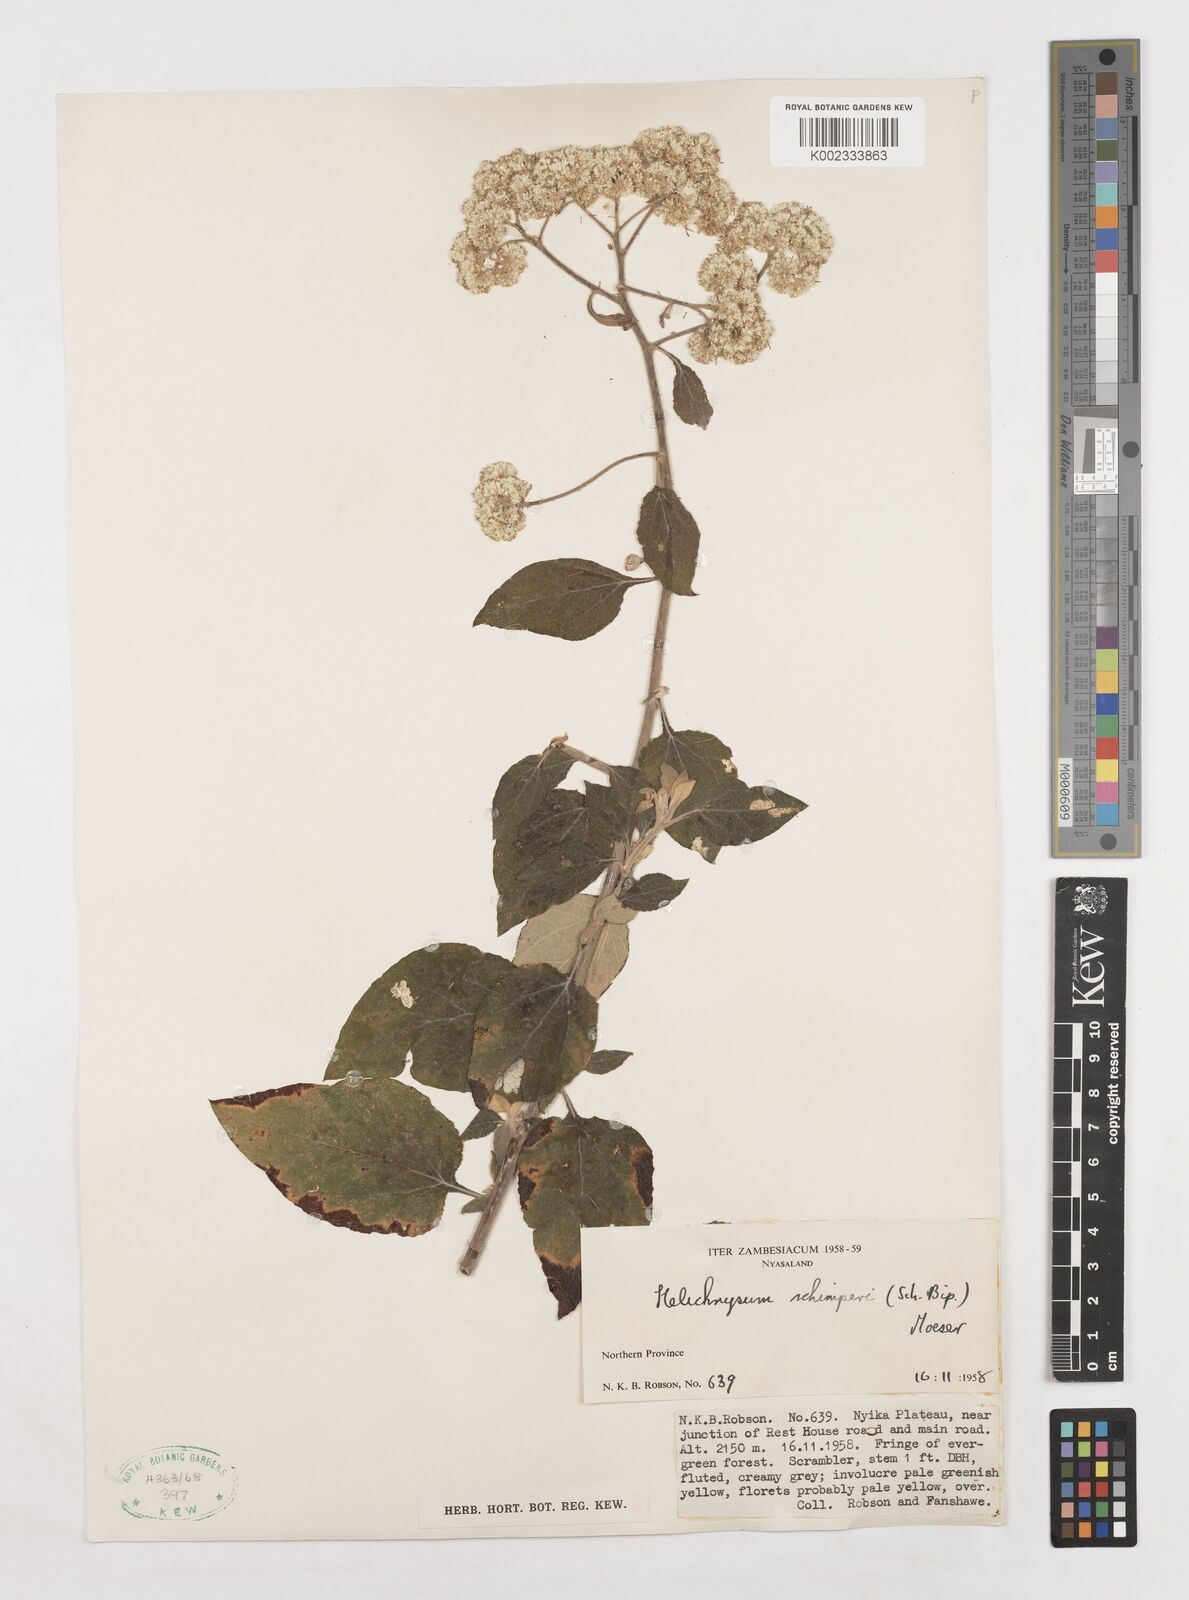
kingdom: Plantae
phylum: Tracheophyta
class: Magnoliopsida
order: Asterales
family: Asteraceae
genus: Helichrysum
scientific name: Helichrysum schimperi
